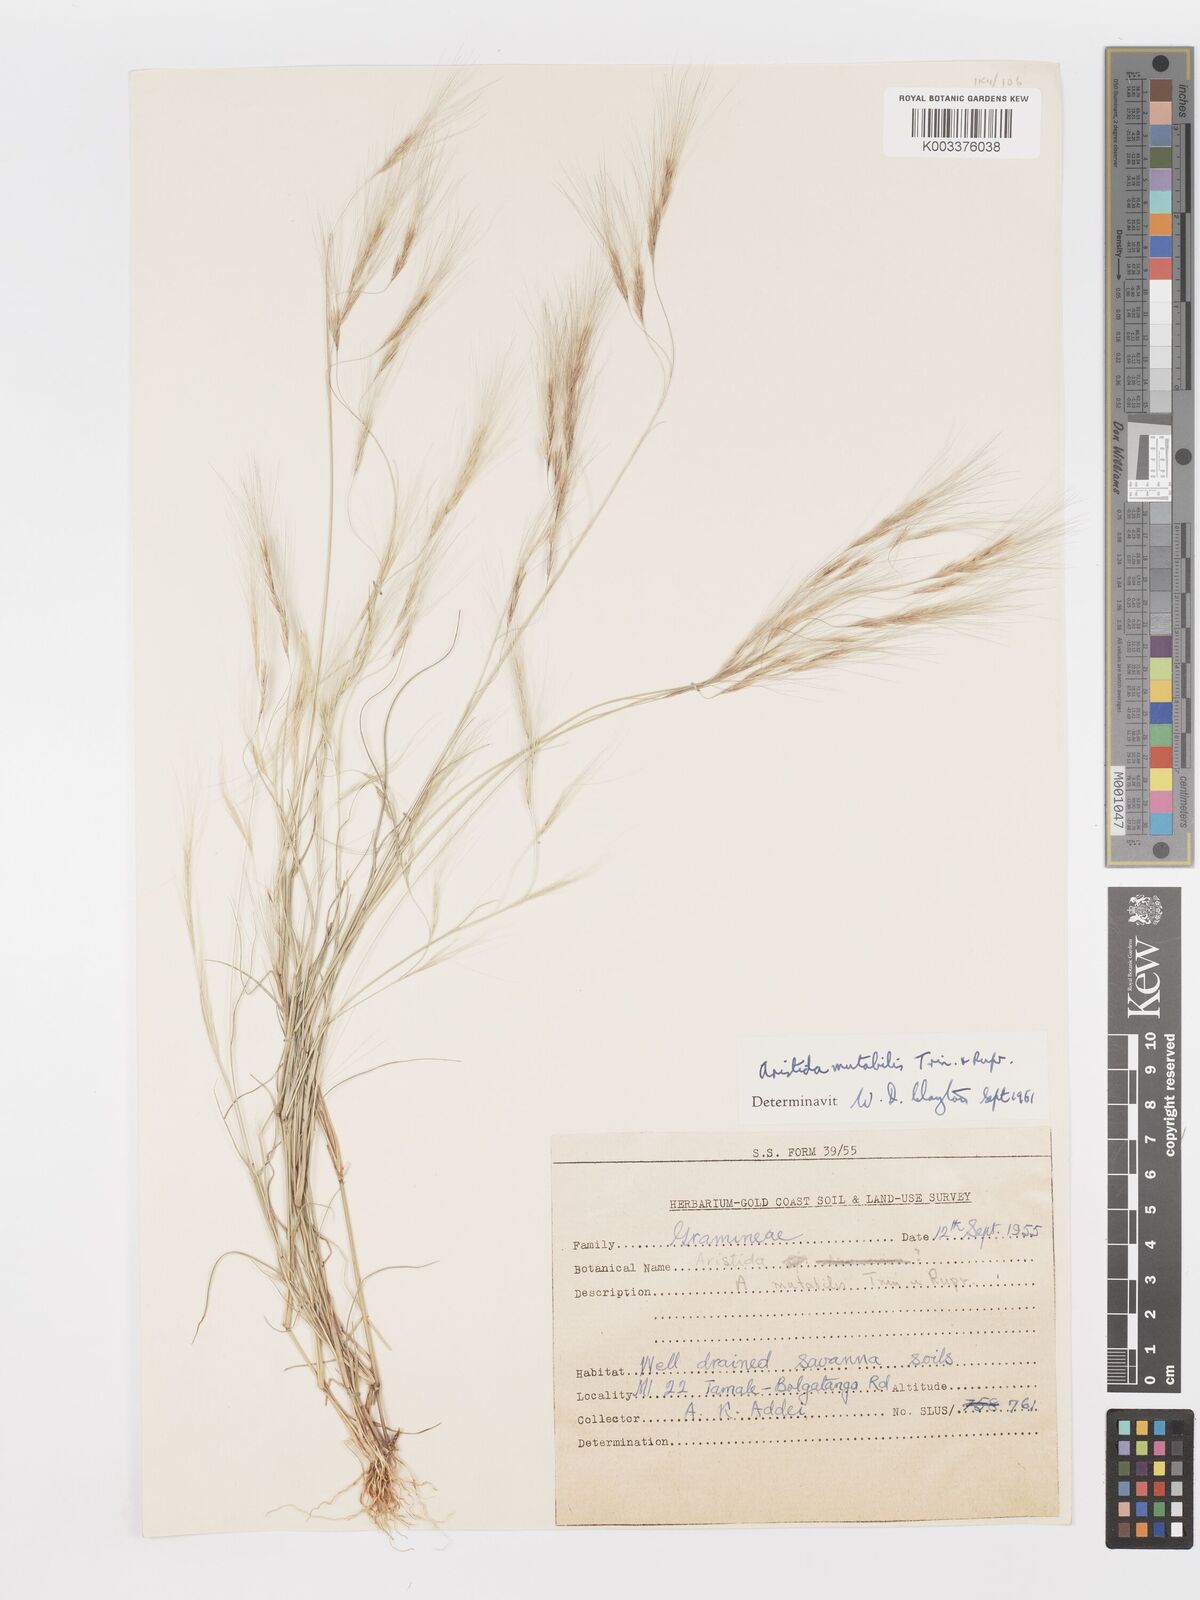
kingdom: Plantae
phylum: Tracheophyta
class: Liliopsida
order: Poales
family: Poaceae
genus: Aristida
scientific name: Aristida mutabilis
